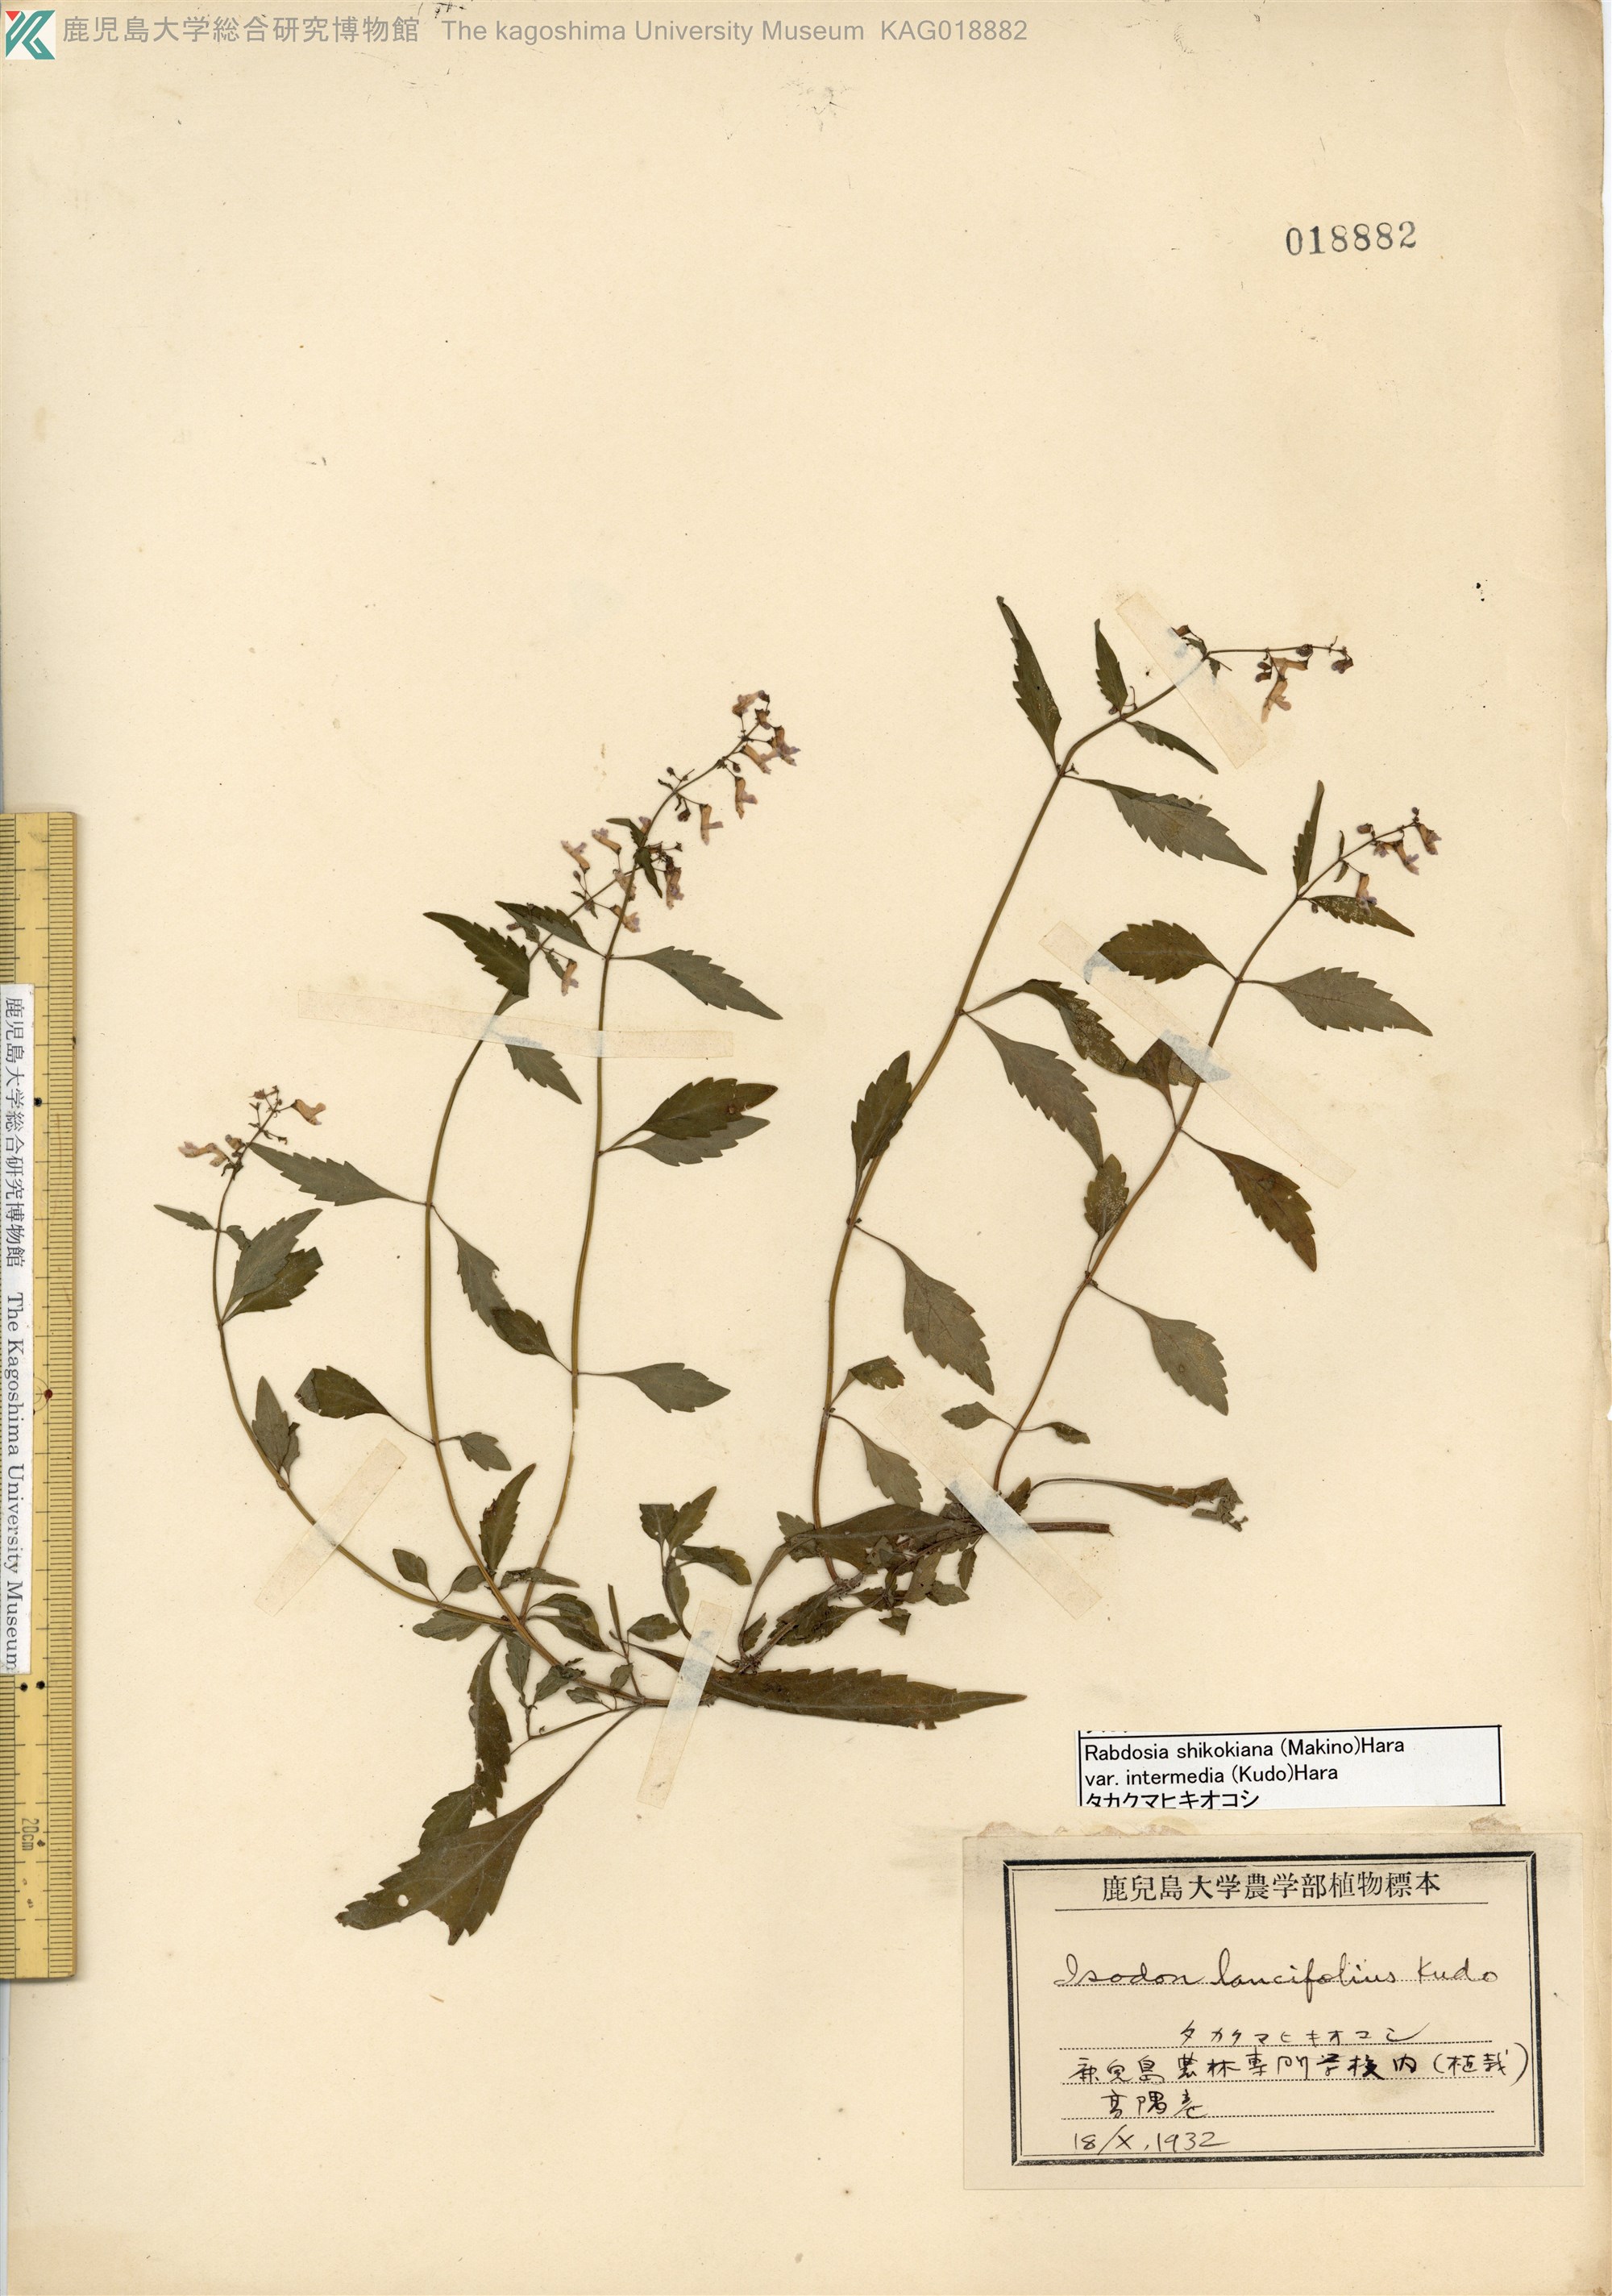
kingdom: Plantae
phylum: Tracheophyta
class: Magnoliopsida
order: Lamiales
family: Lamiaceae
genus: Isodon
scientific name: Isodon shikokianus
